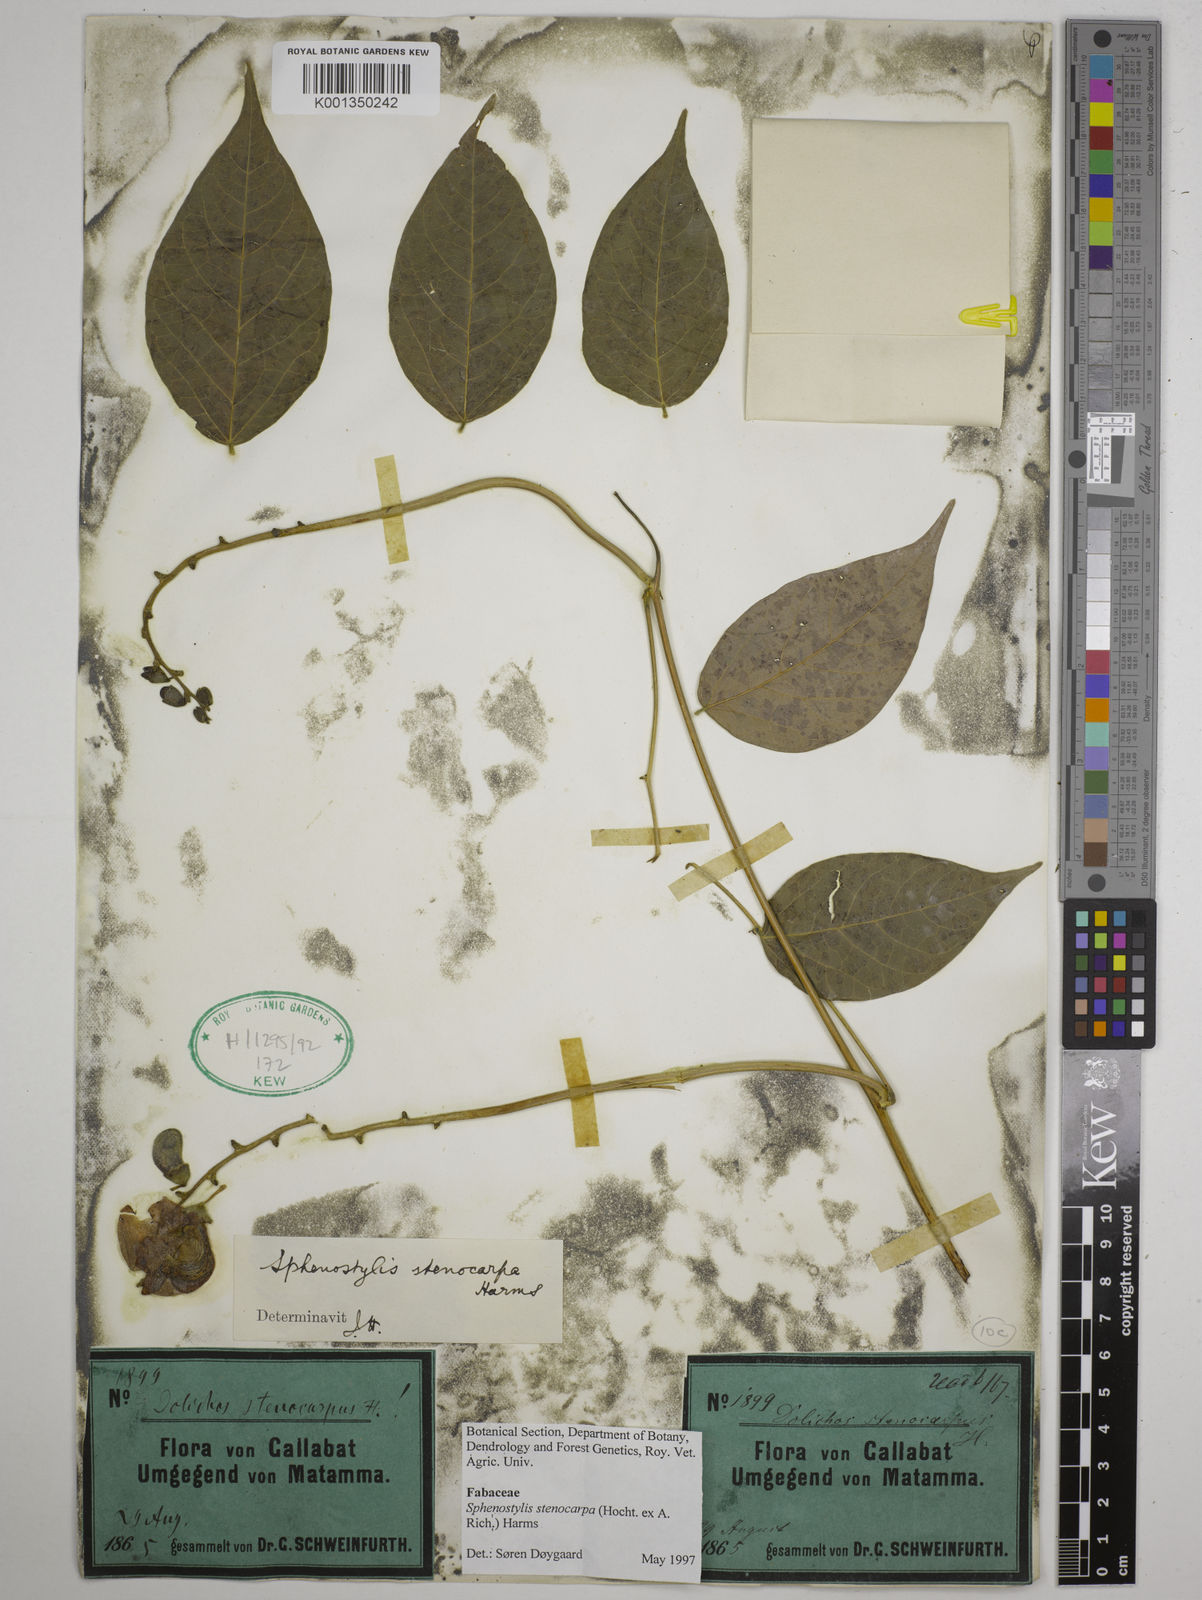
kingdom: Plantae
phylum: Tracheophyta
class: Magnoliopsida
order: Fabales
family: Fabaceae
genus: Sphenostylis
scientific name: Sphenostylis stenocarpa
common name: Yam-pea
